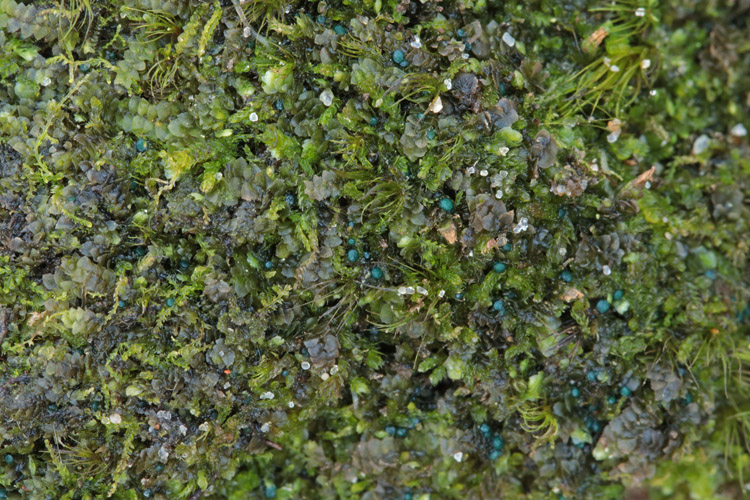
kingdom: Fungi
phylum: Ascomycota
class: Leotiomycetes
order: Leotiales
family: Mniaeciaceae
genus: Mniaecia
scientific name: Mniaecia jungermanniae
